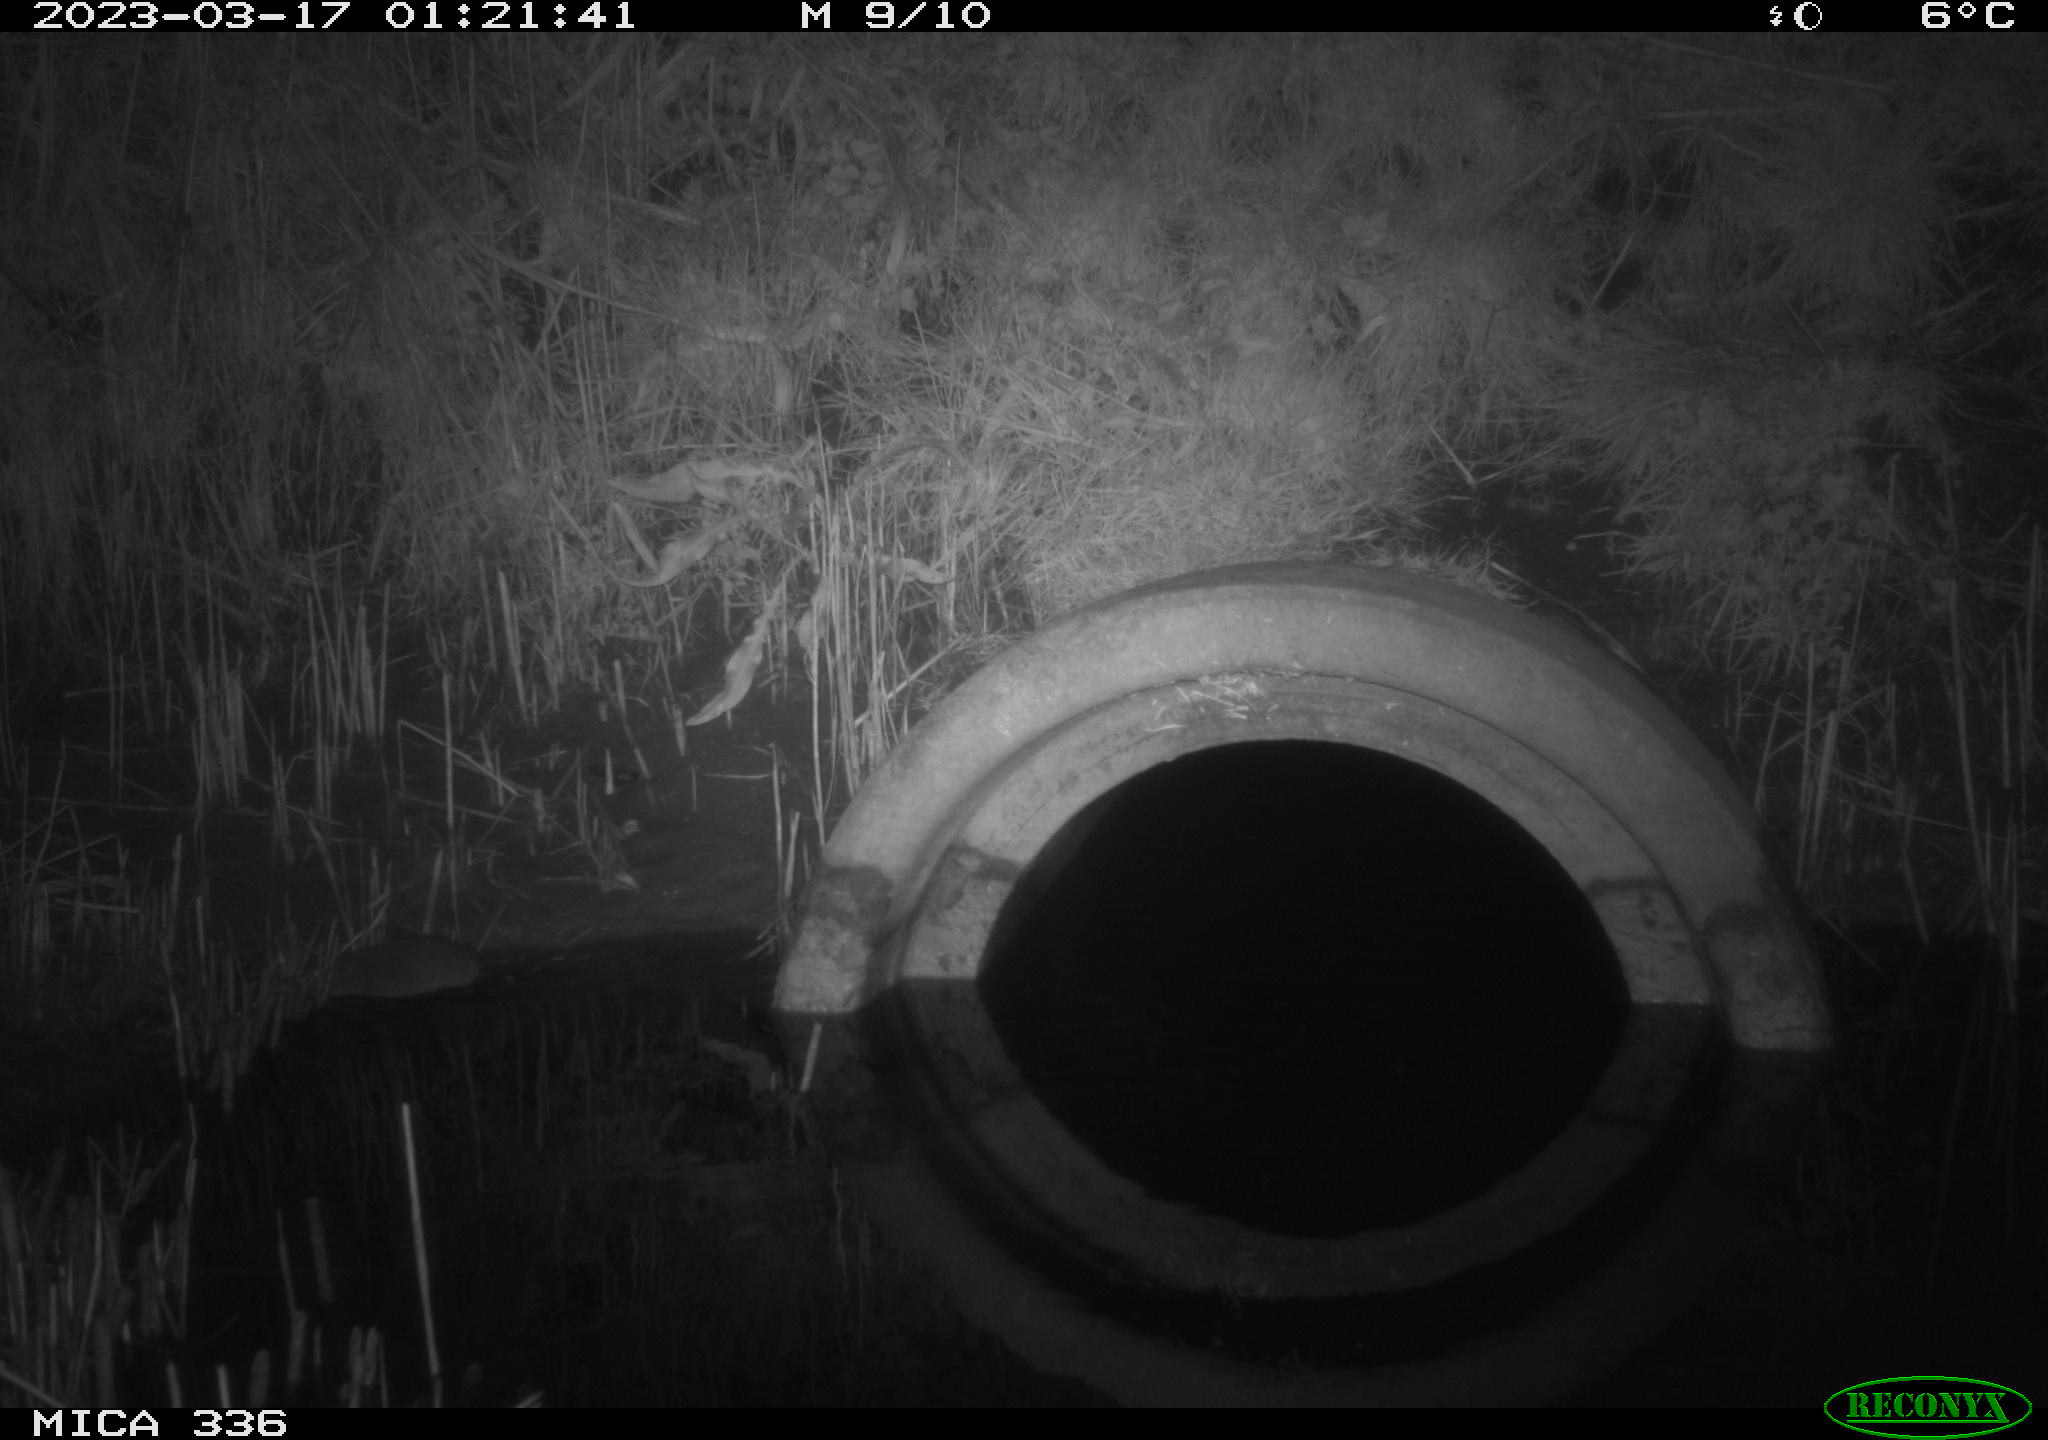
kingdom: Animalia
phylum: Chordata
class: Mammalia
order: Rodentia
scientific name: Rodentia
